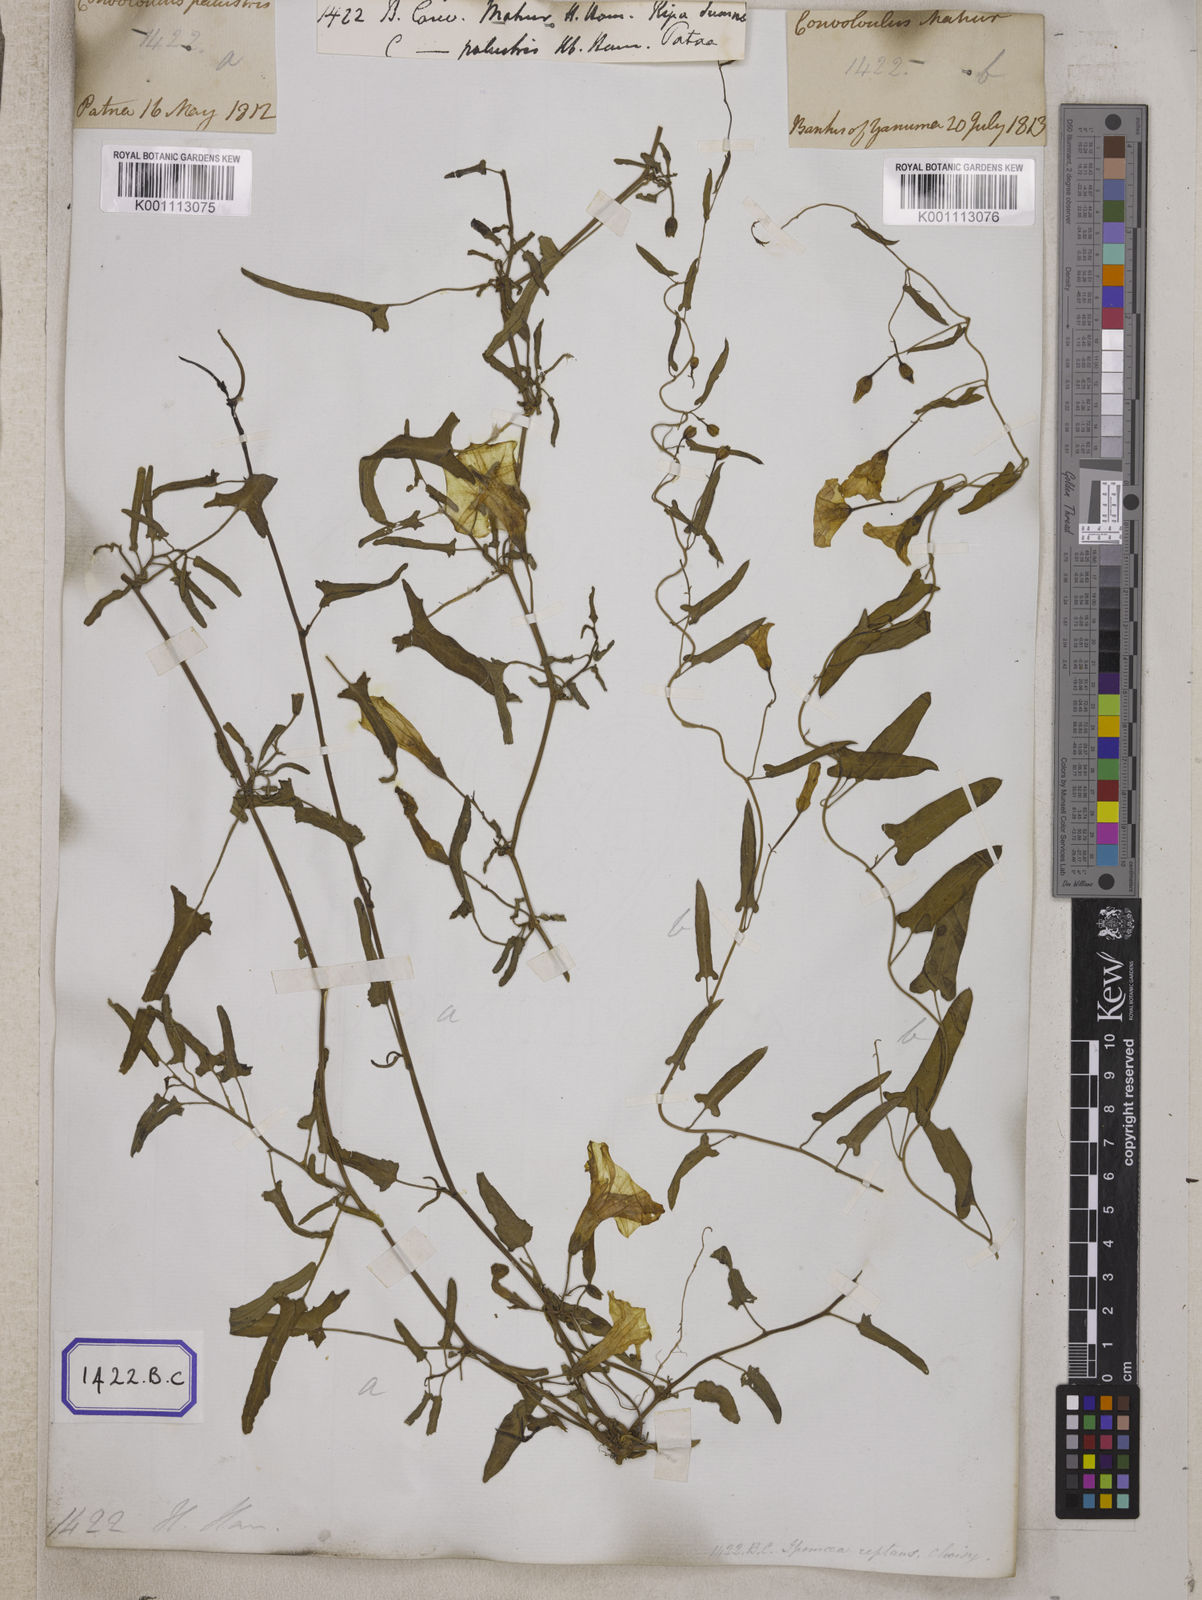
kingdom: Plantae
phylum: Tracheophyta
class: Magnoliopsida
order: Solanales
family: Convolvulaceae
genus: Convolvulus
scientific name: Convolvulus
